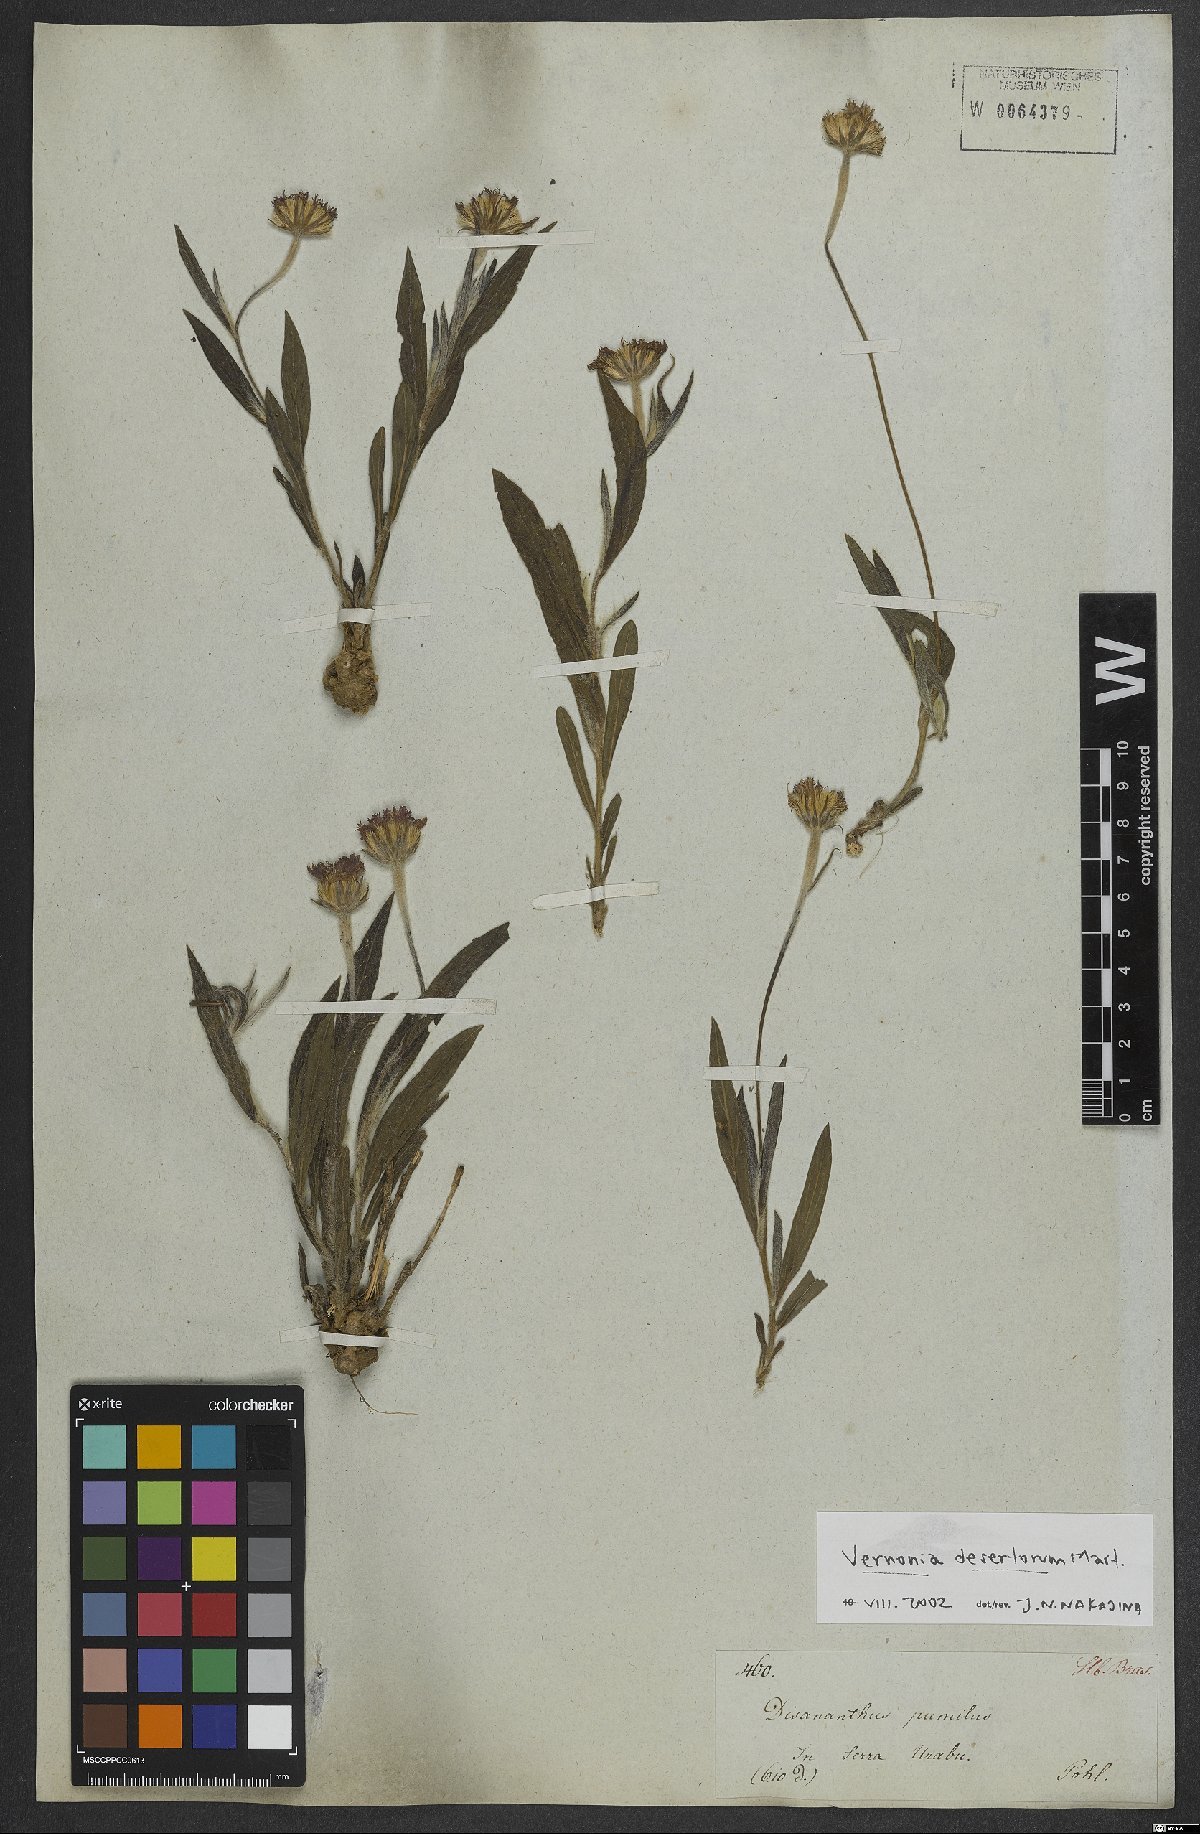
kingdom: Plantae
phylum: Tracheophyta
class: Magnoliopsida
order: Asterales
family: Asteraceae
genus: Chrysolaena
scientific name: Chrysolaena desertorum
